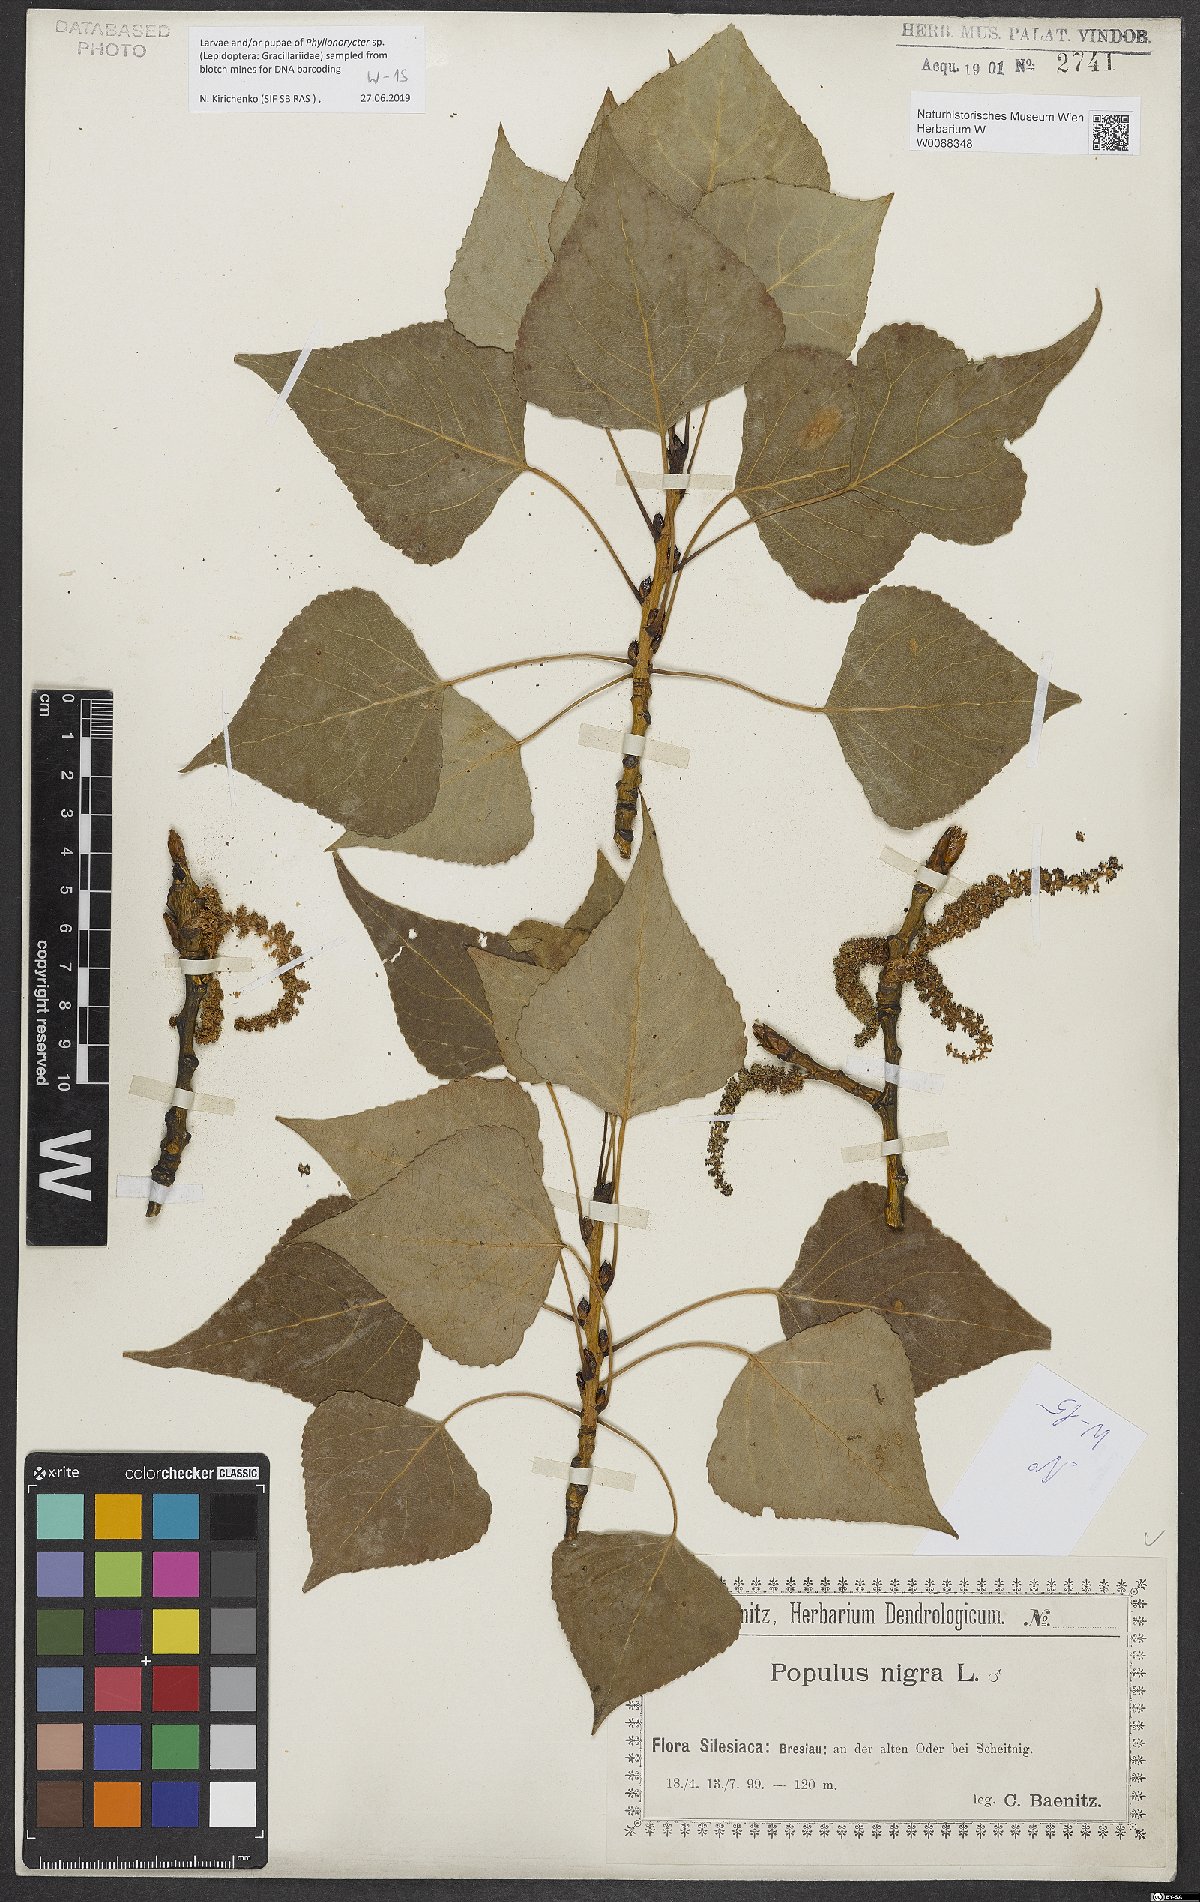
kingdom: Plantae
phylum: Tracheophyta
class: Magnoliopsida
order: Malpighiales
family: Salicaceae
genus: Populus
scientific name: Populus nigra
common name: Black poplar
